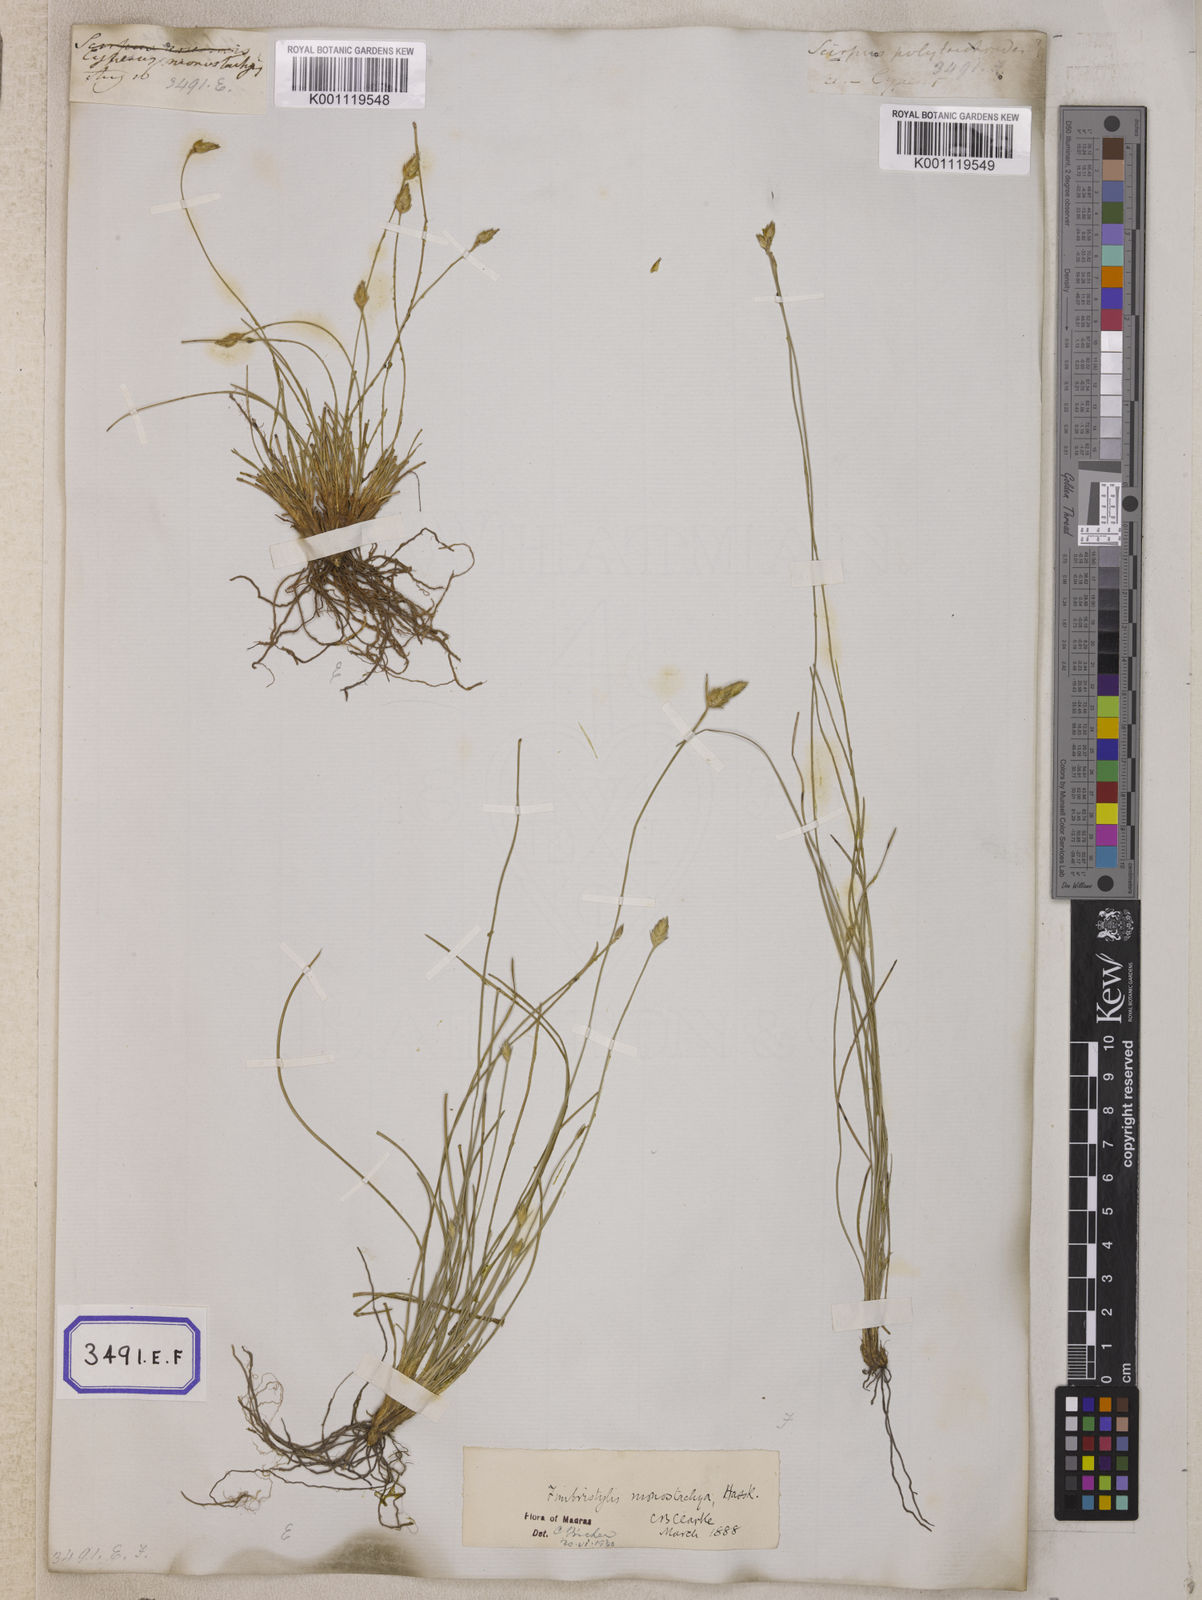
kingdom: Plantae
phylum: Tracheophyta
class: Liliopsida
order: Poales
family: Cyperaceae
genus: Abildgaardia
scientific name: Abildgaardia
